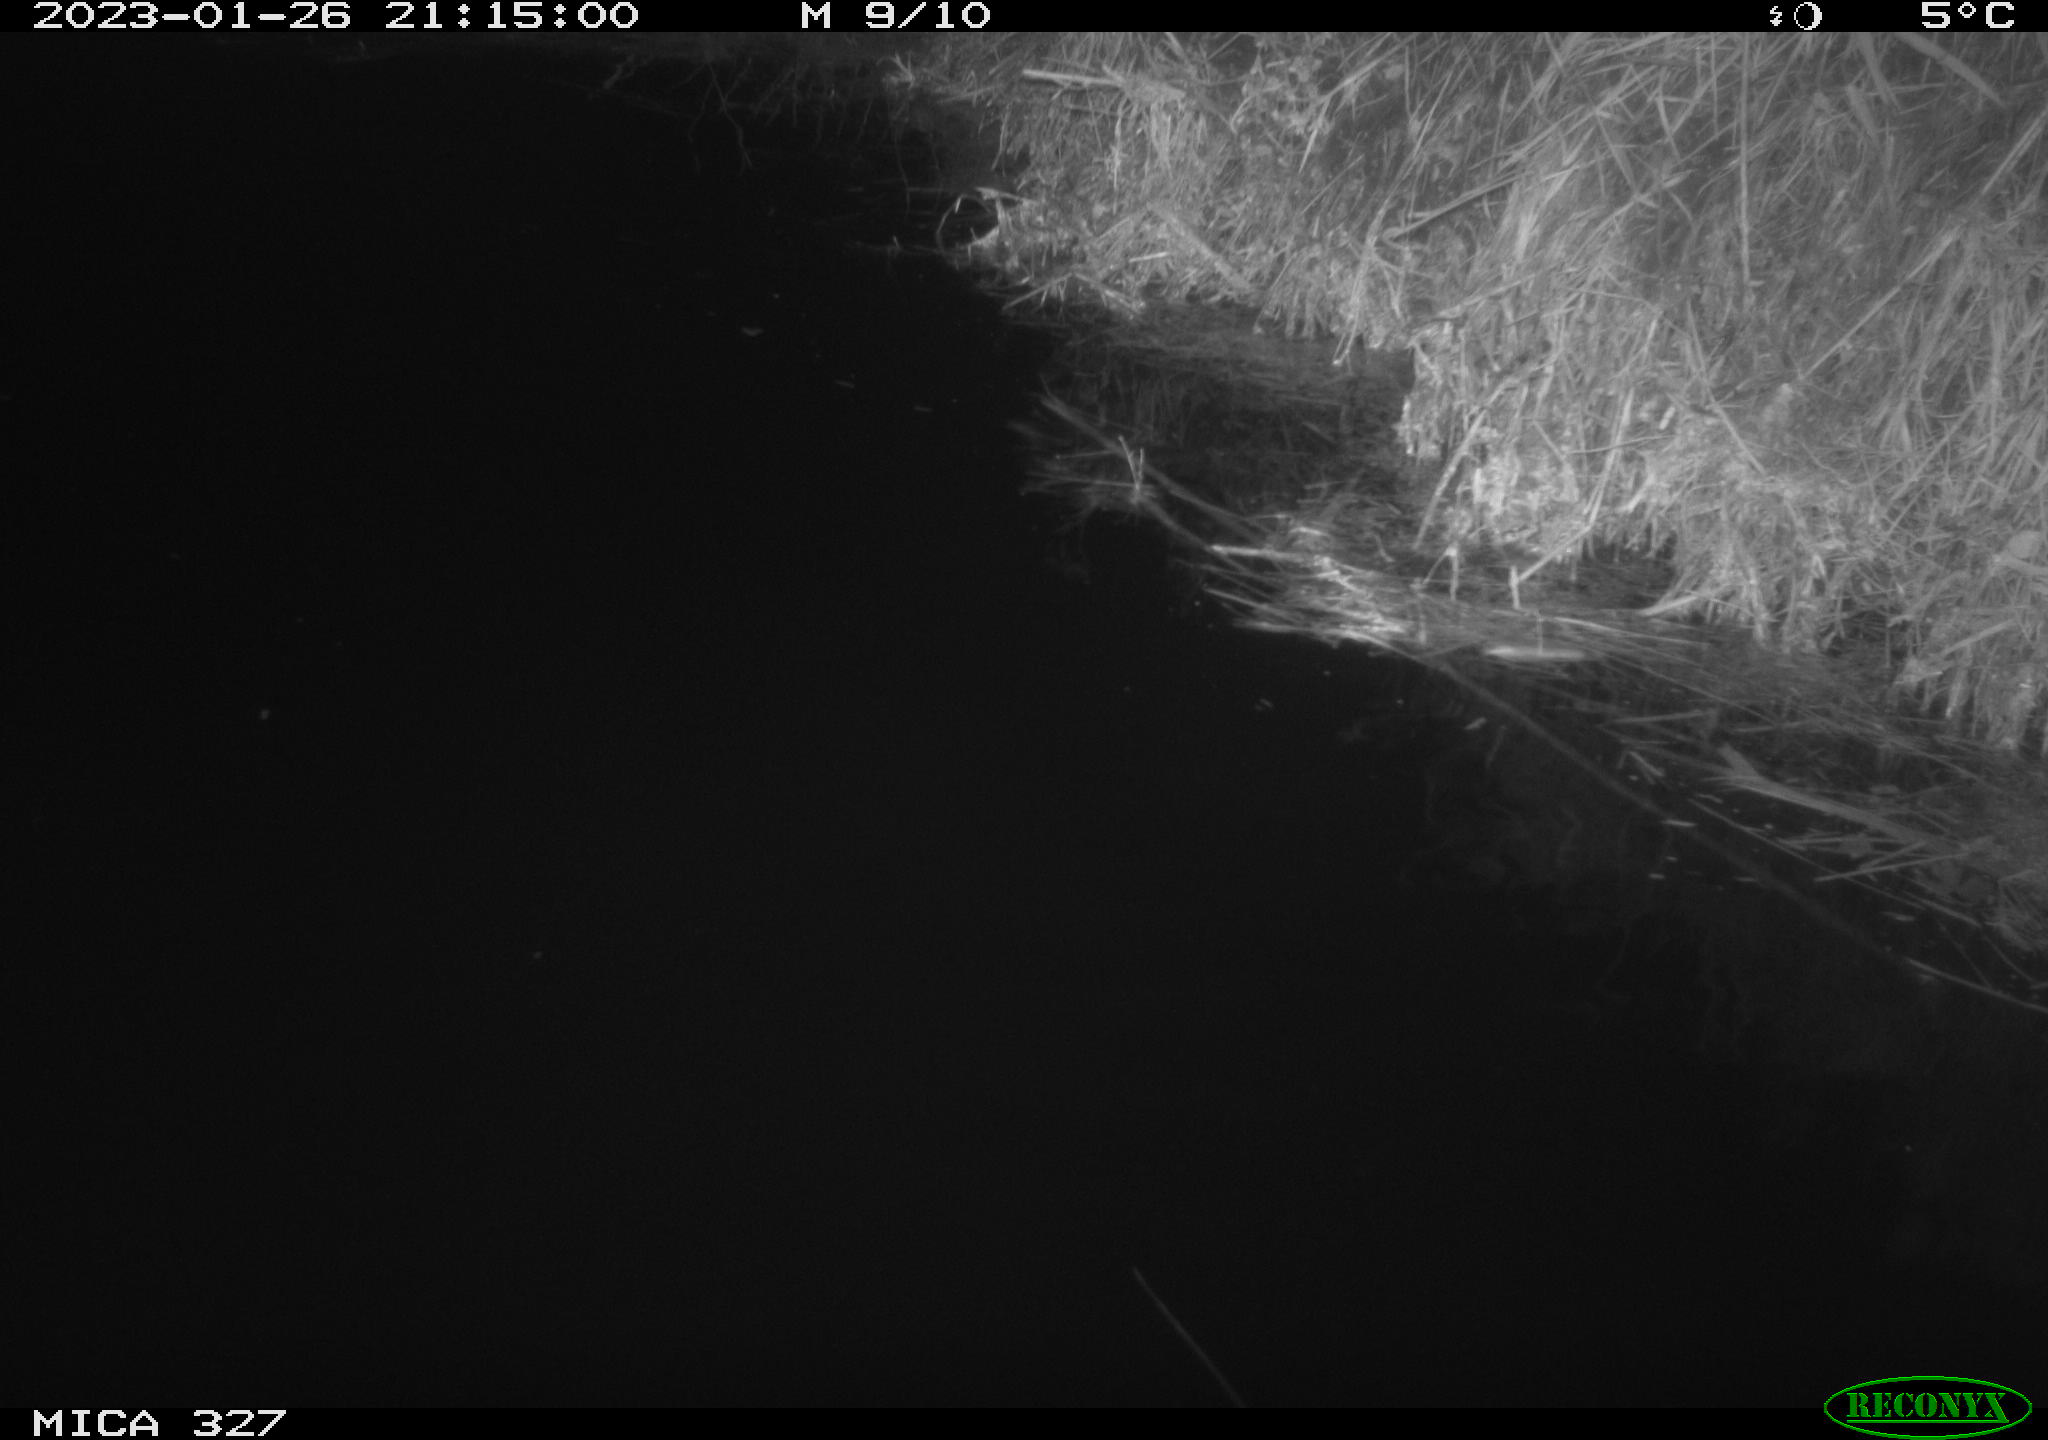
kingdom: Animalia
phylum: Chordata
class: Mammalia
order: Rodentia
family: Cricetidae
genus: Ondatra
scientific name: Ondatra zibethicus
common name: Muskrat
